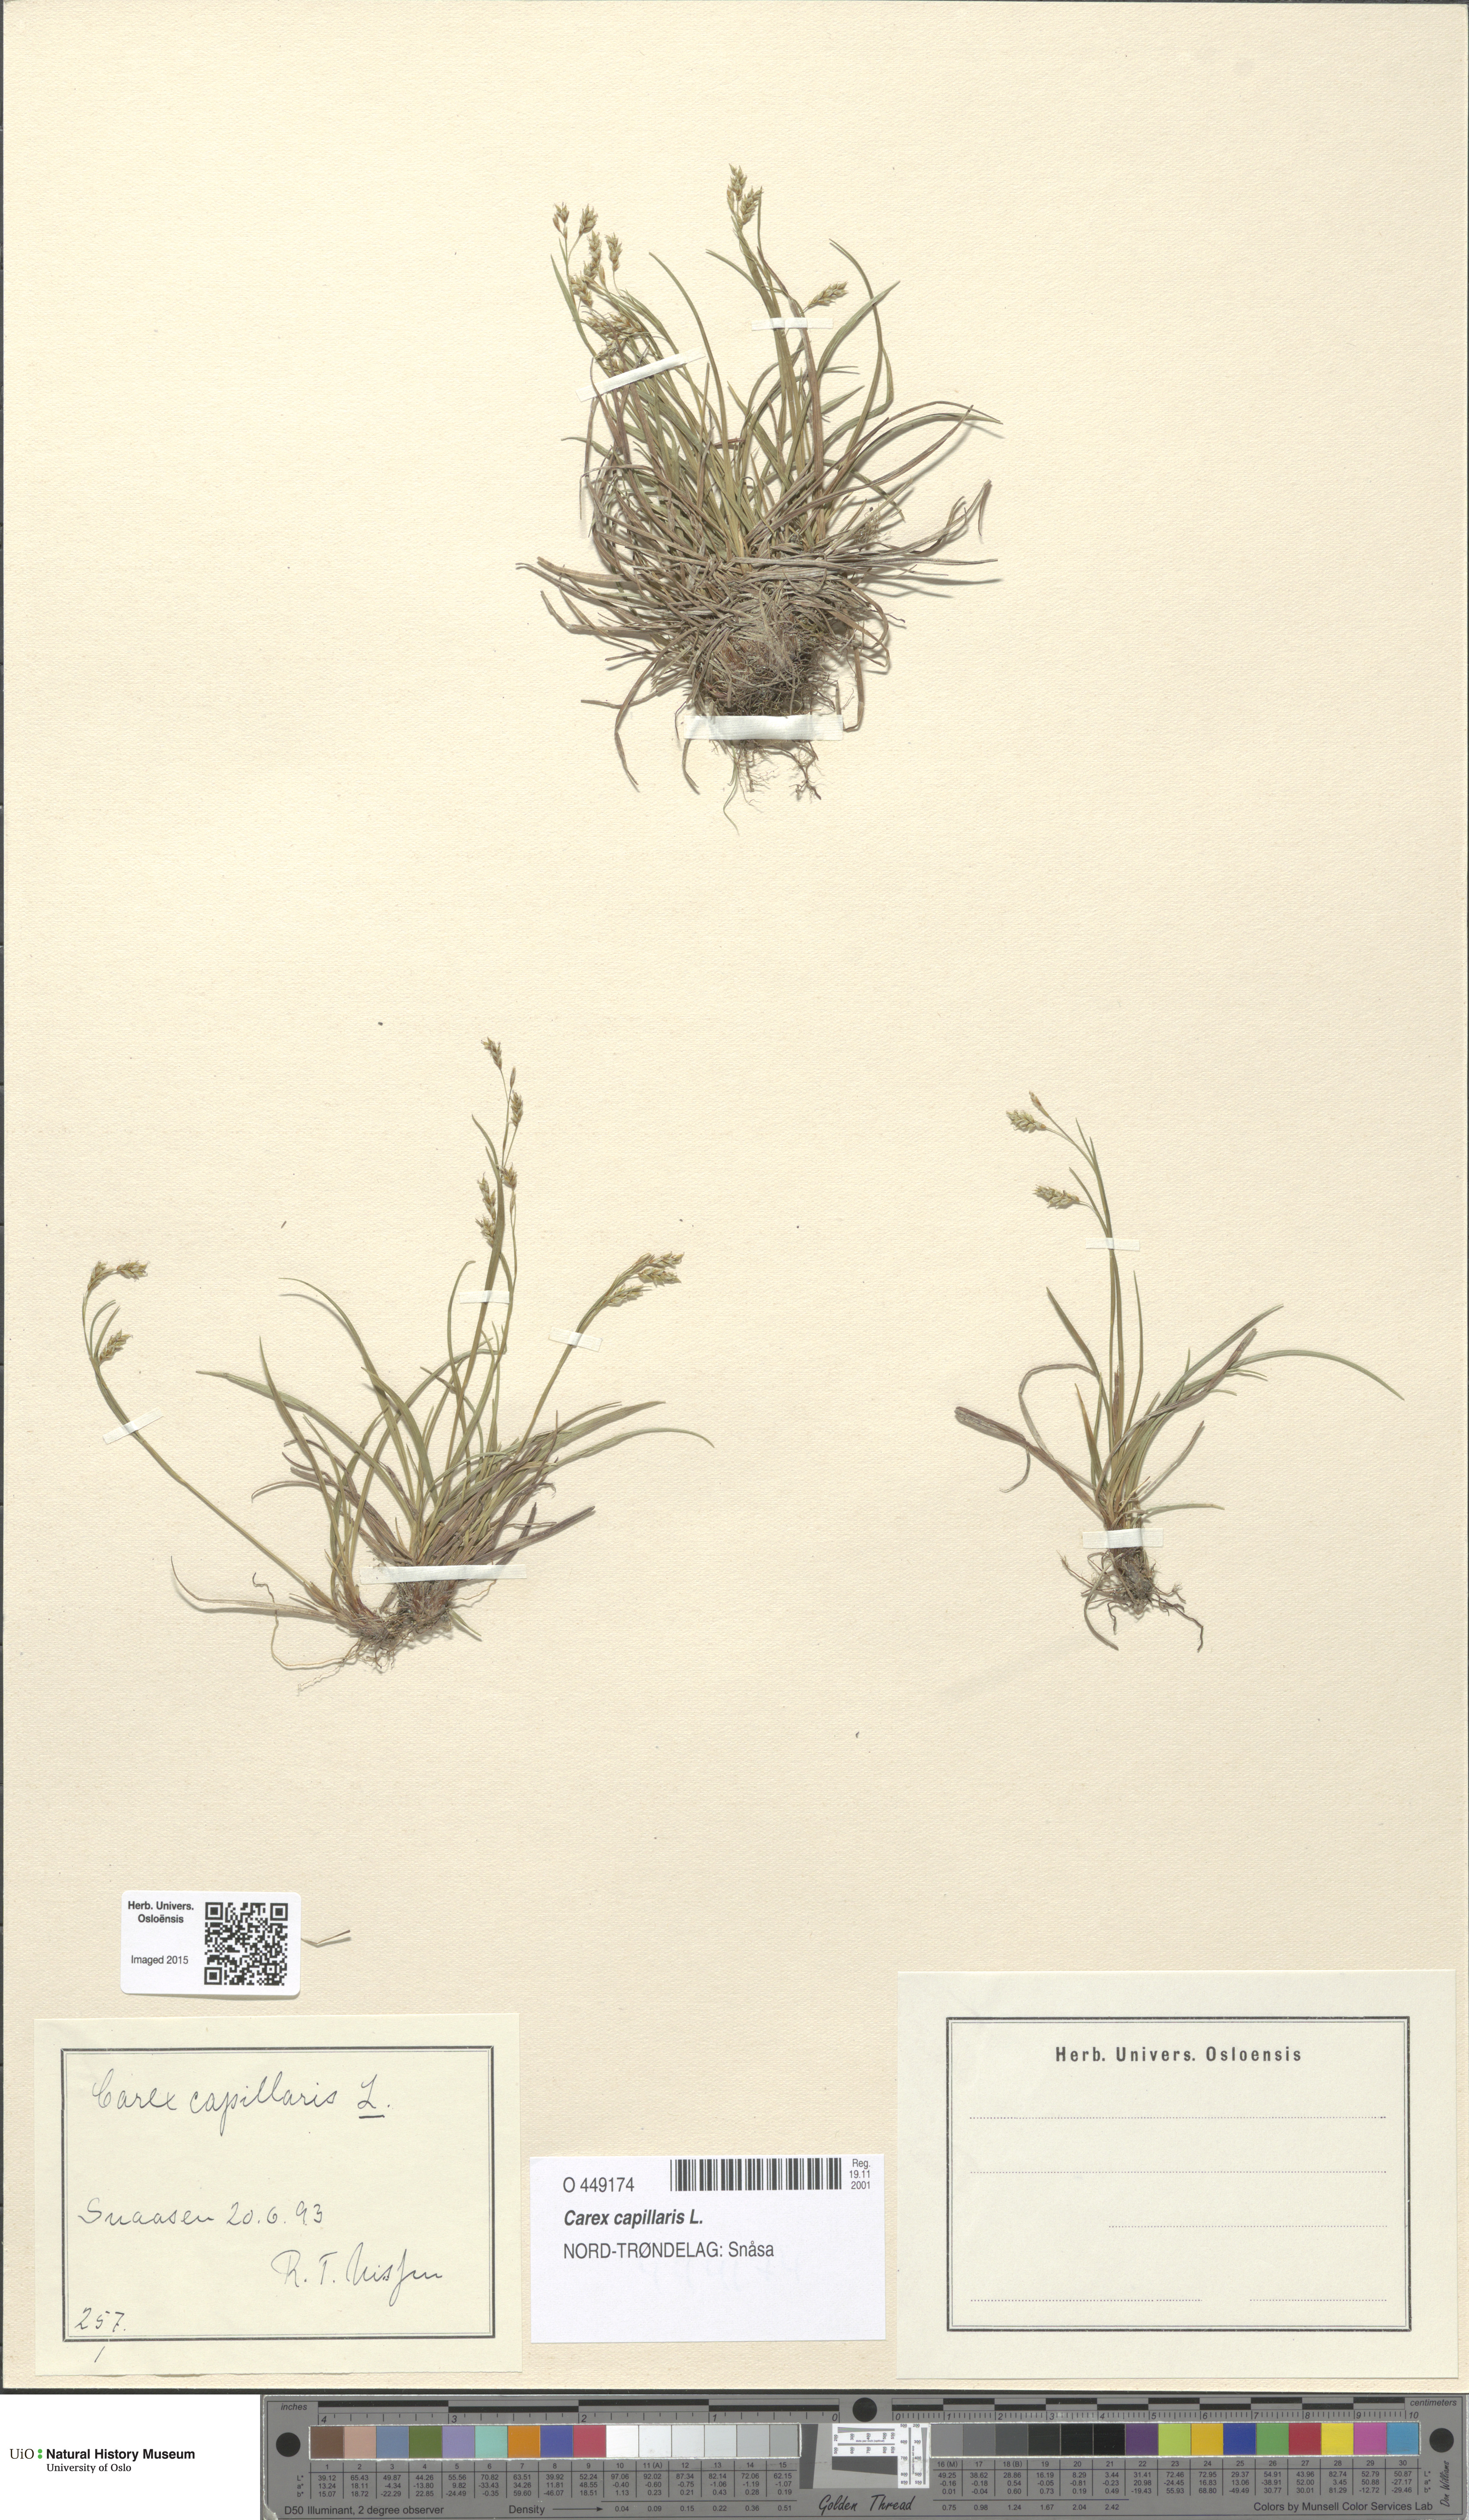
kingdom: Plantae
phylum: Tracheophyta
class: Liliopsida
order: Poales
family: Cyperaceae
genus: Carex
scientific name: Carex capillaris
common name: Hair sedge
